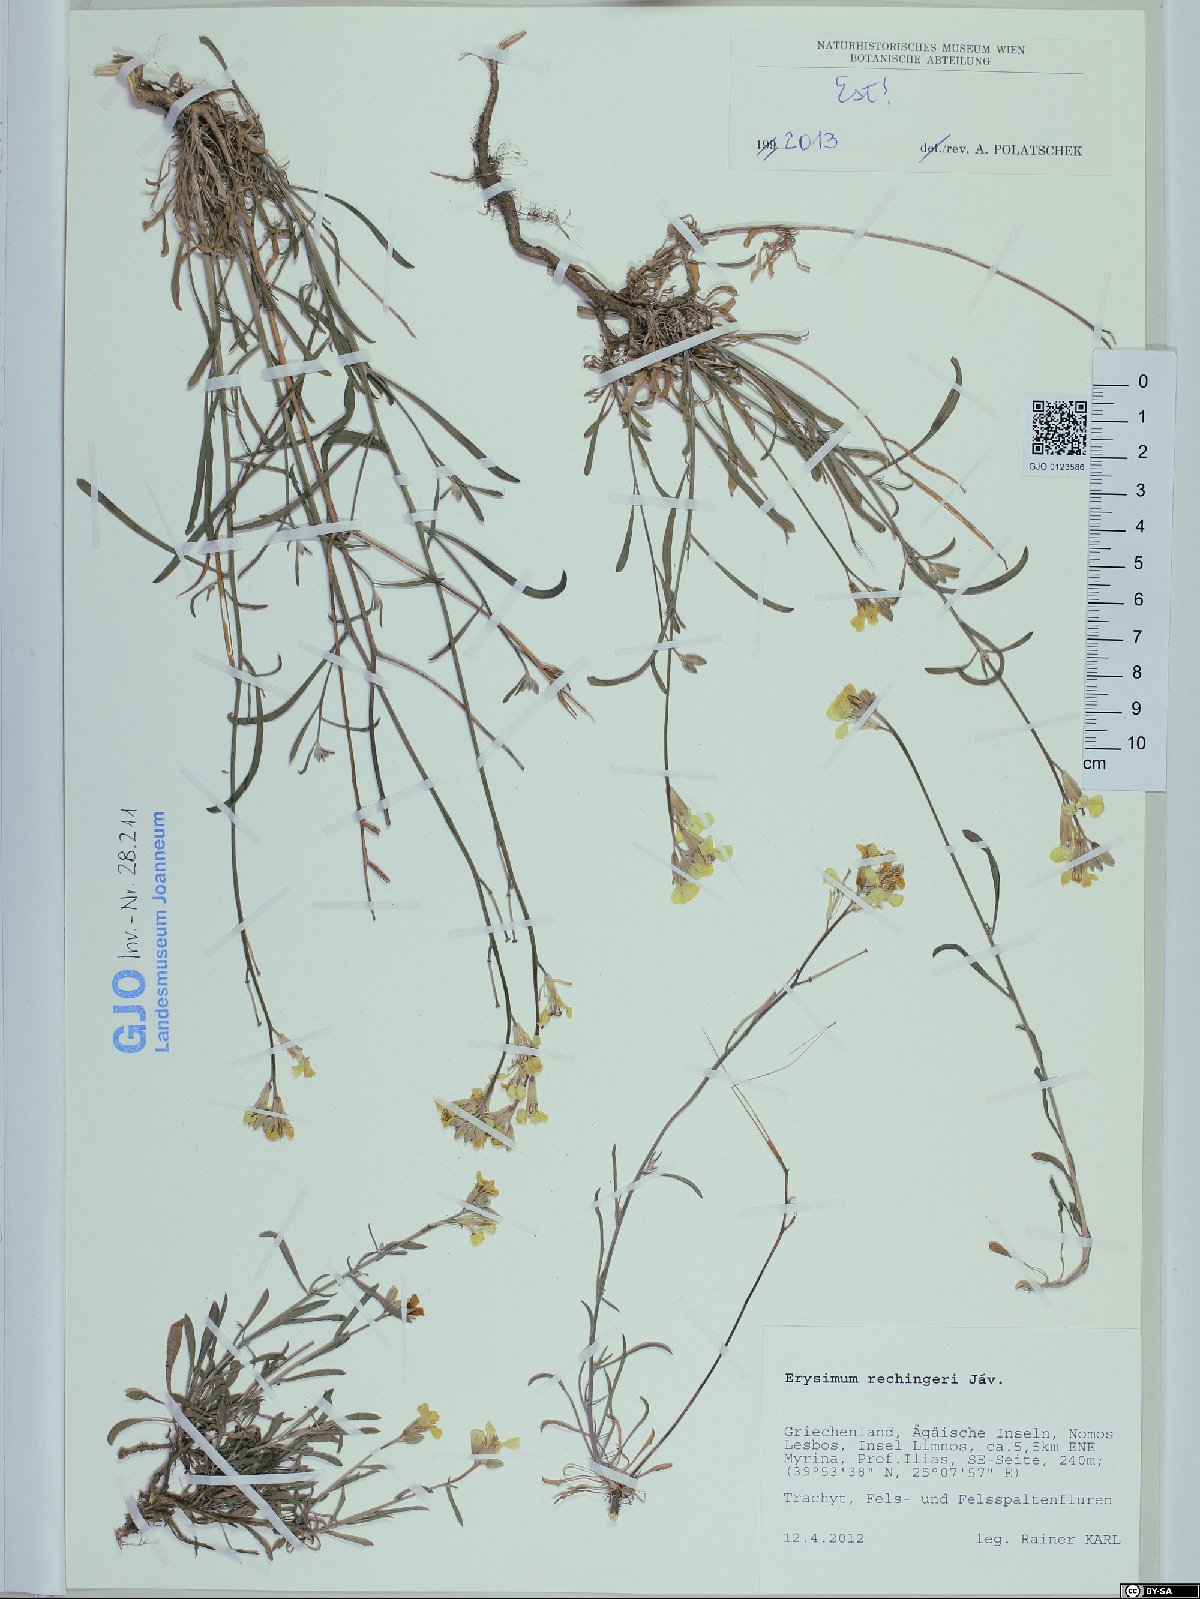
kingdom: Plantae
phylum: Tracheophyta
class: Magnoliopsida
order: Brassicales
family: Brassicaceae
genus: Erysimum
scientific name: Erysimum pusillum
